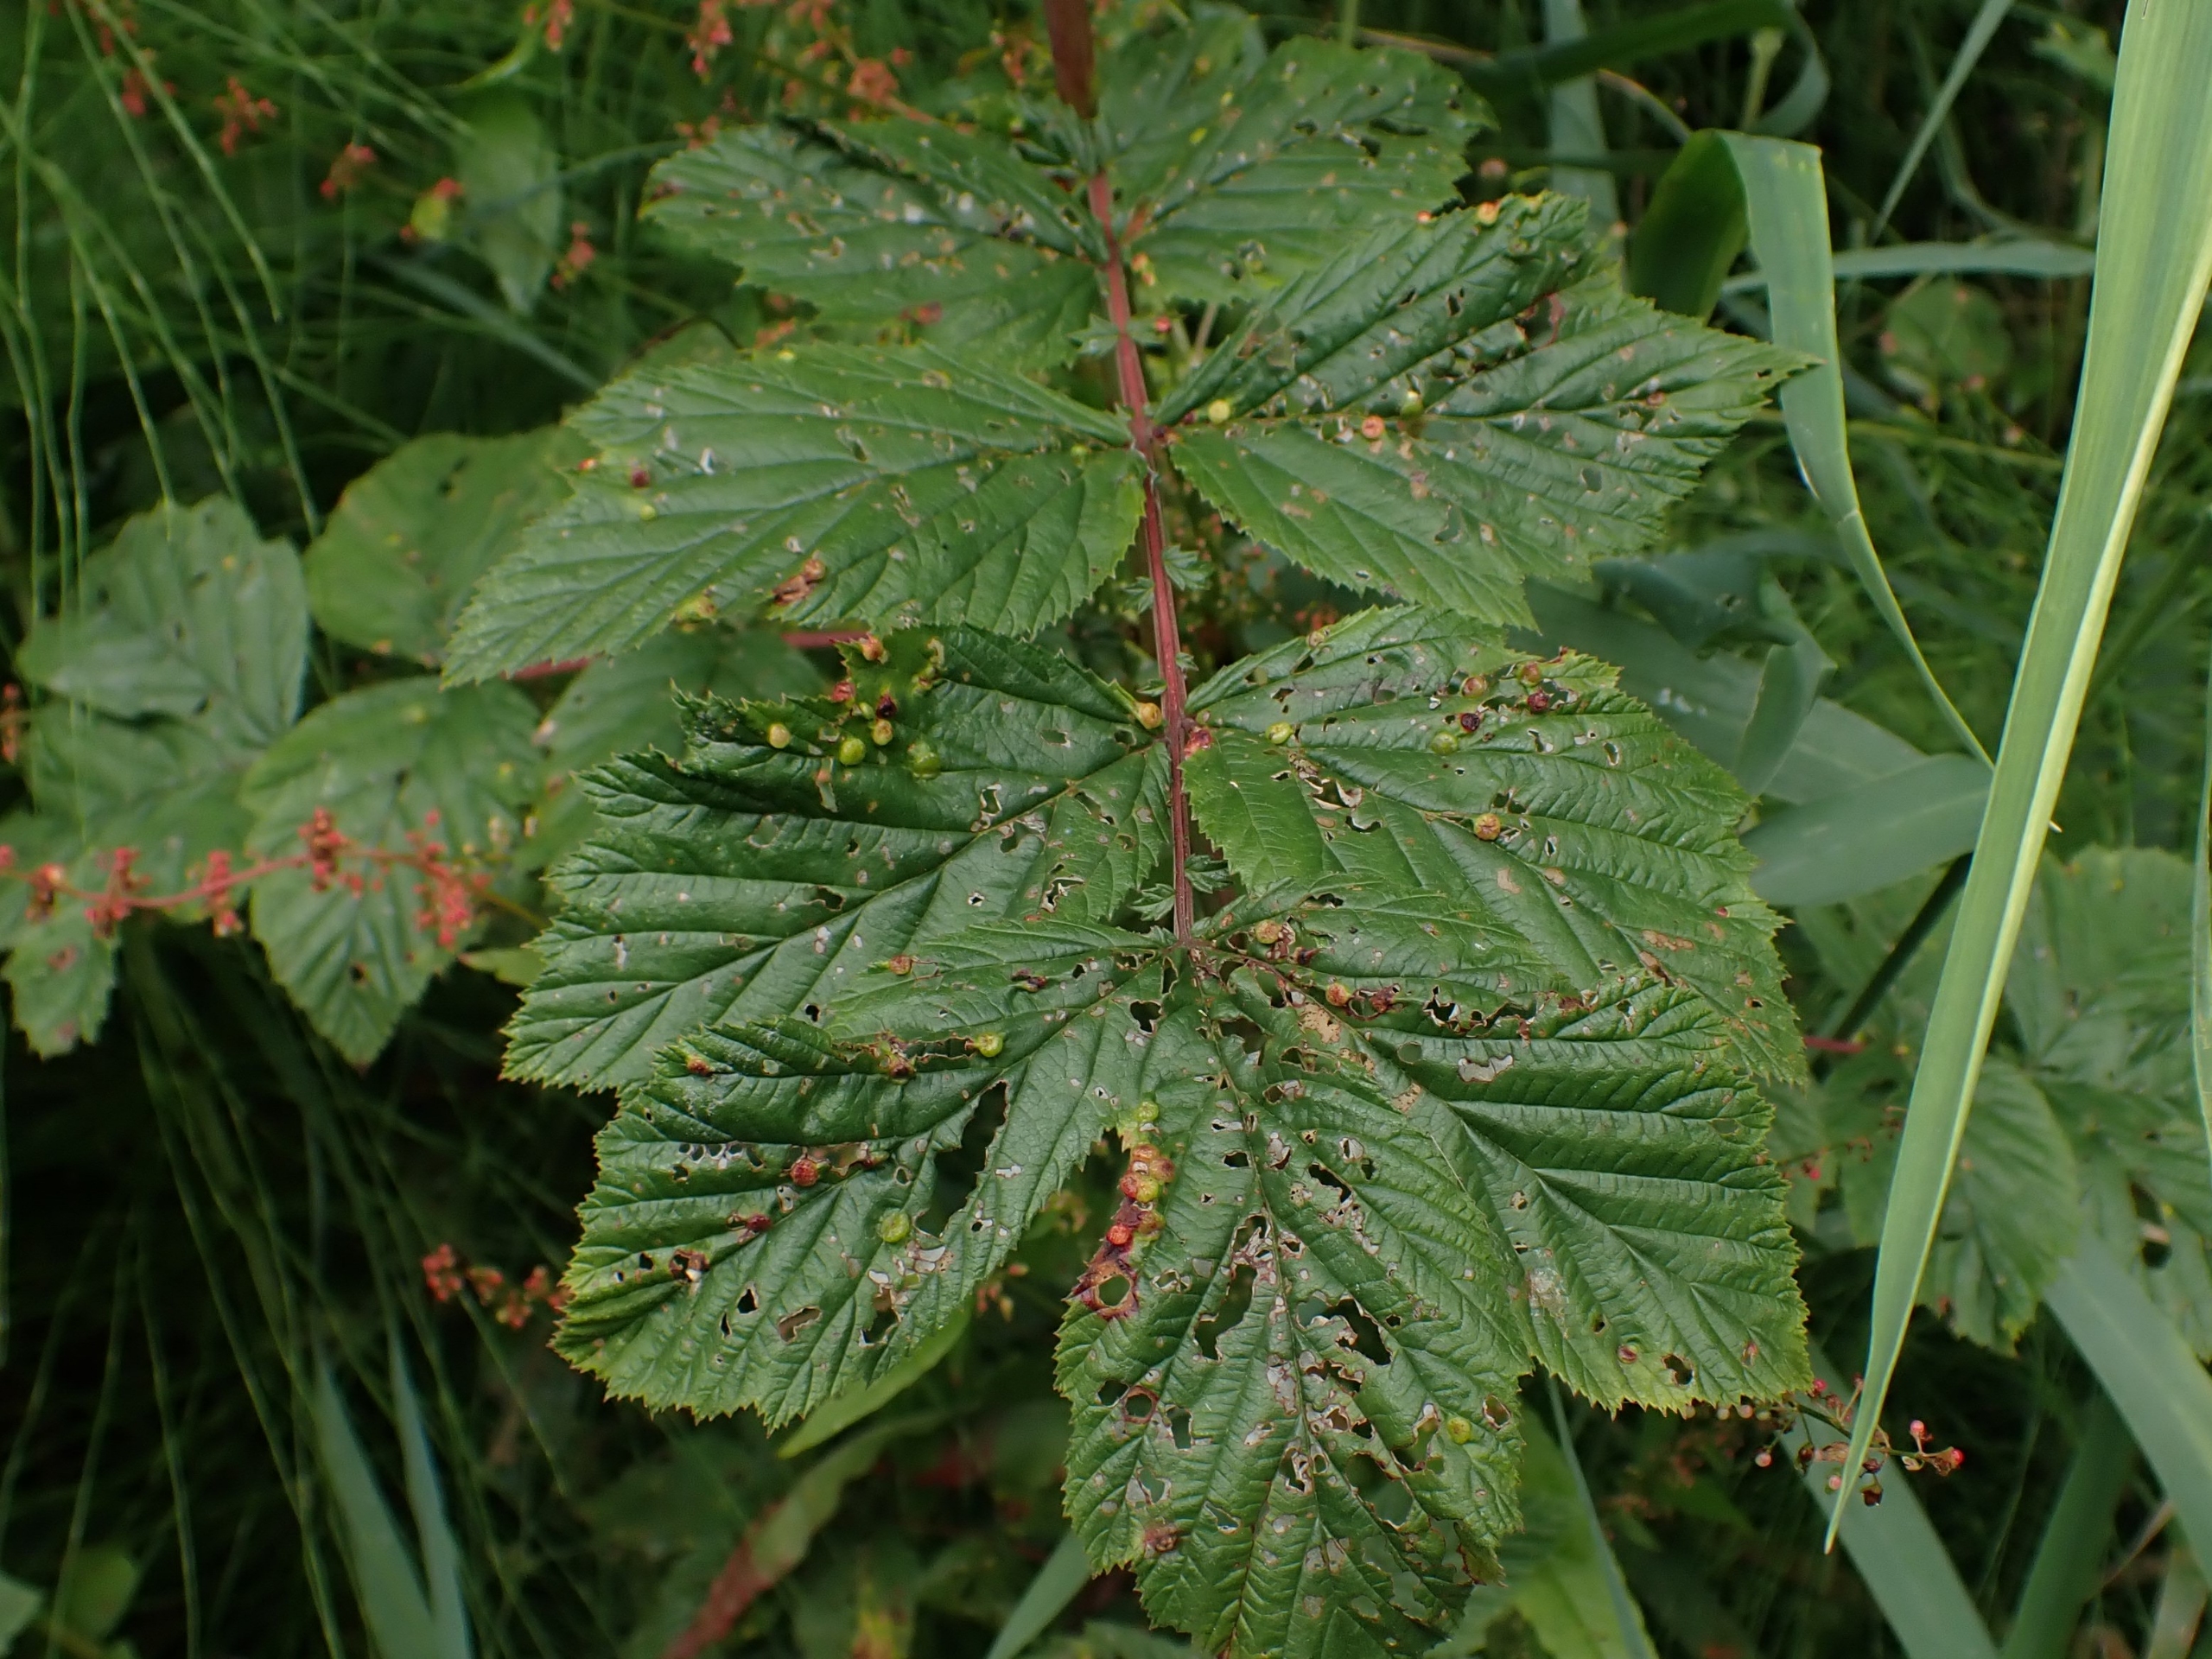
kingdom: Animalia
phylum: Arthropoda
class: Insecta
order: Diptera
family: Cecidomyiidae
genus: Dasineura
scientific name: Dasineura ulmaria
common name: Mjødurtgalmyg
